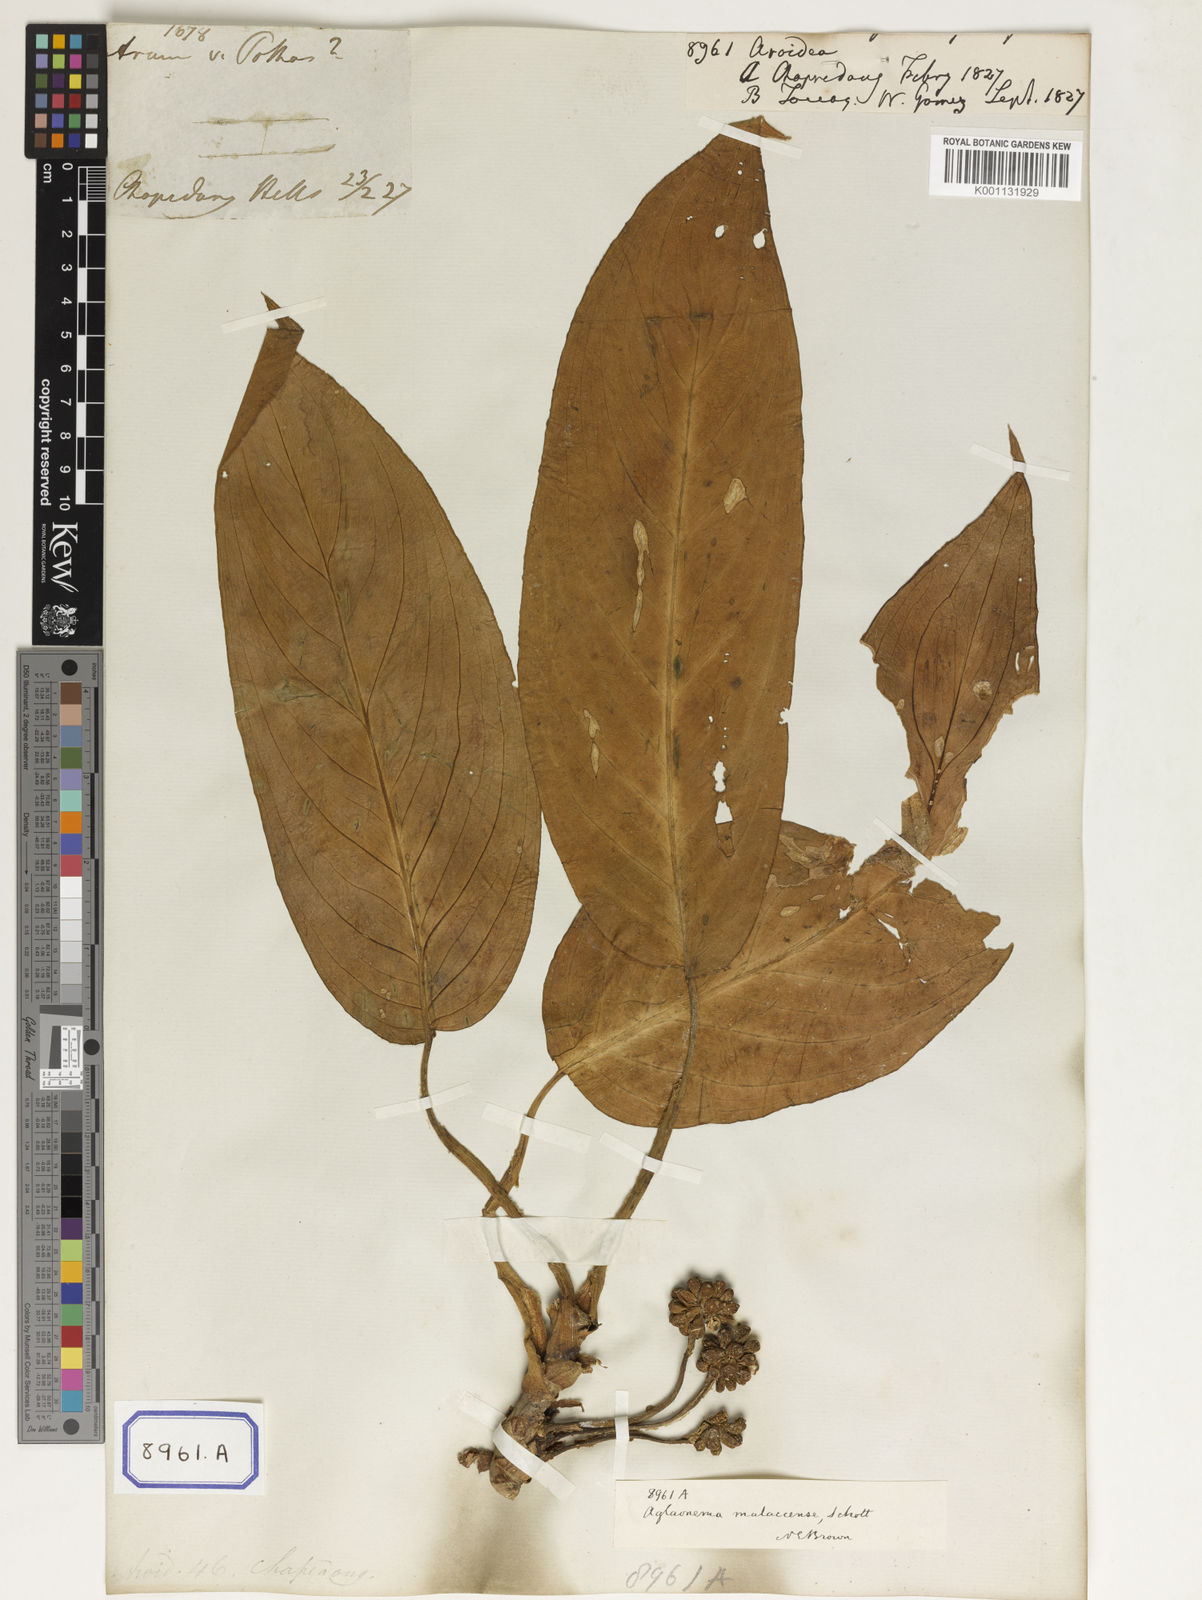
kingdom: Plantae
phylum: Tracheophyta
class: Liliopsida
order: Alismatales
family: Araceae
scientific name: Araceae
